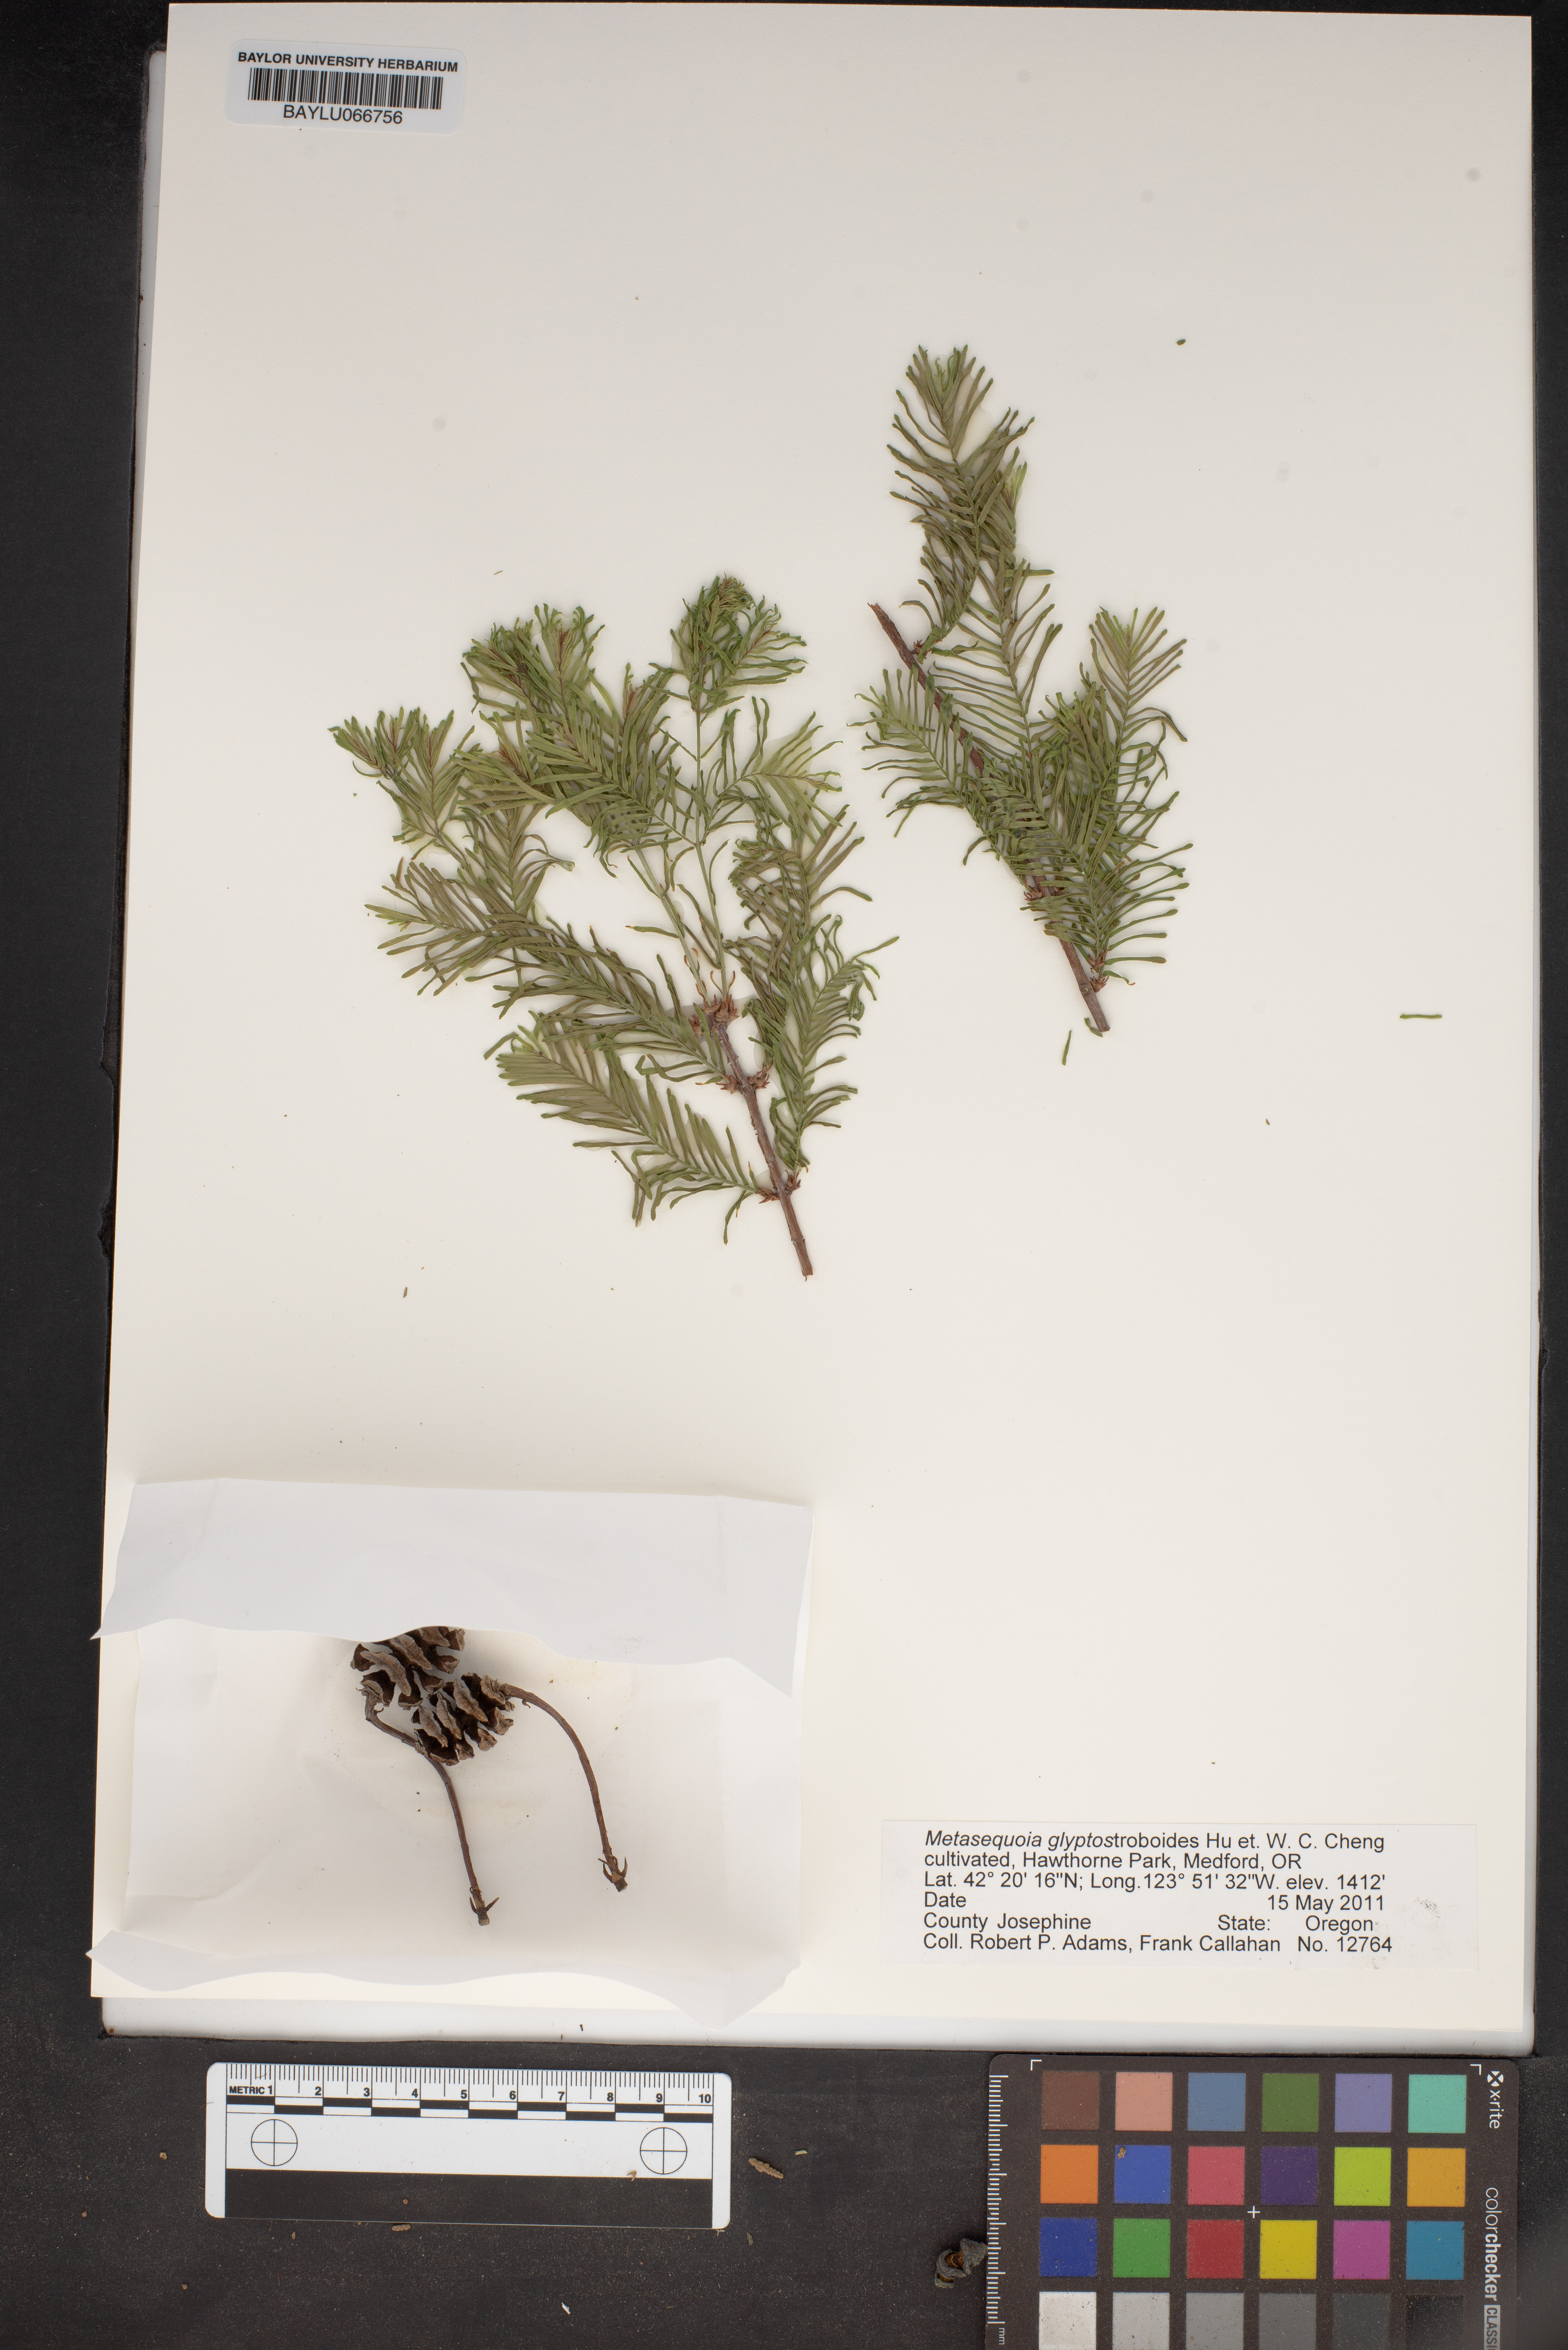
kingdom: Plantae
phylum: Tracheophyta
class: Pinopsida
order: Pinales
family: Cupressaceae
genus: Metasequoia
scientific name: Metasequoia glyptostroboides
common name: Dawn redwood
